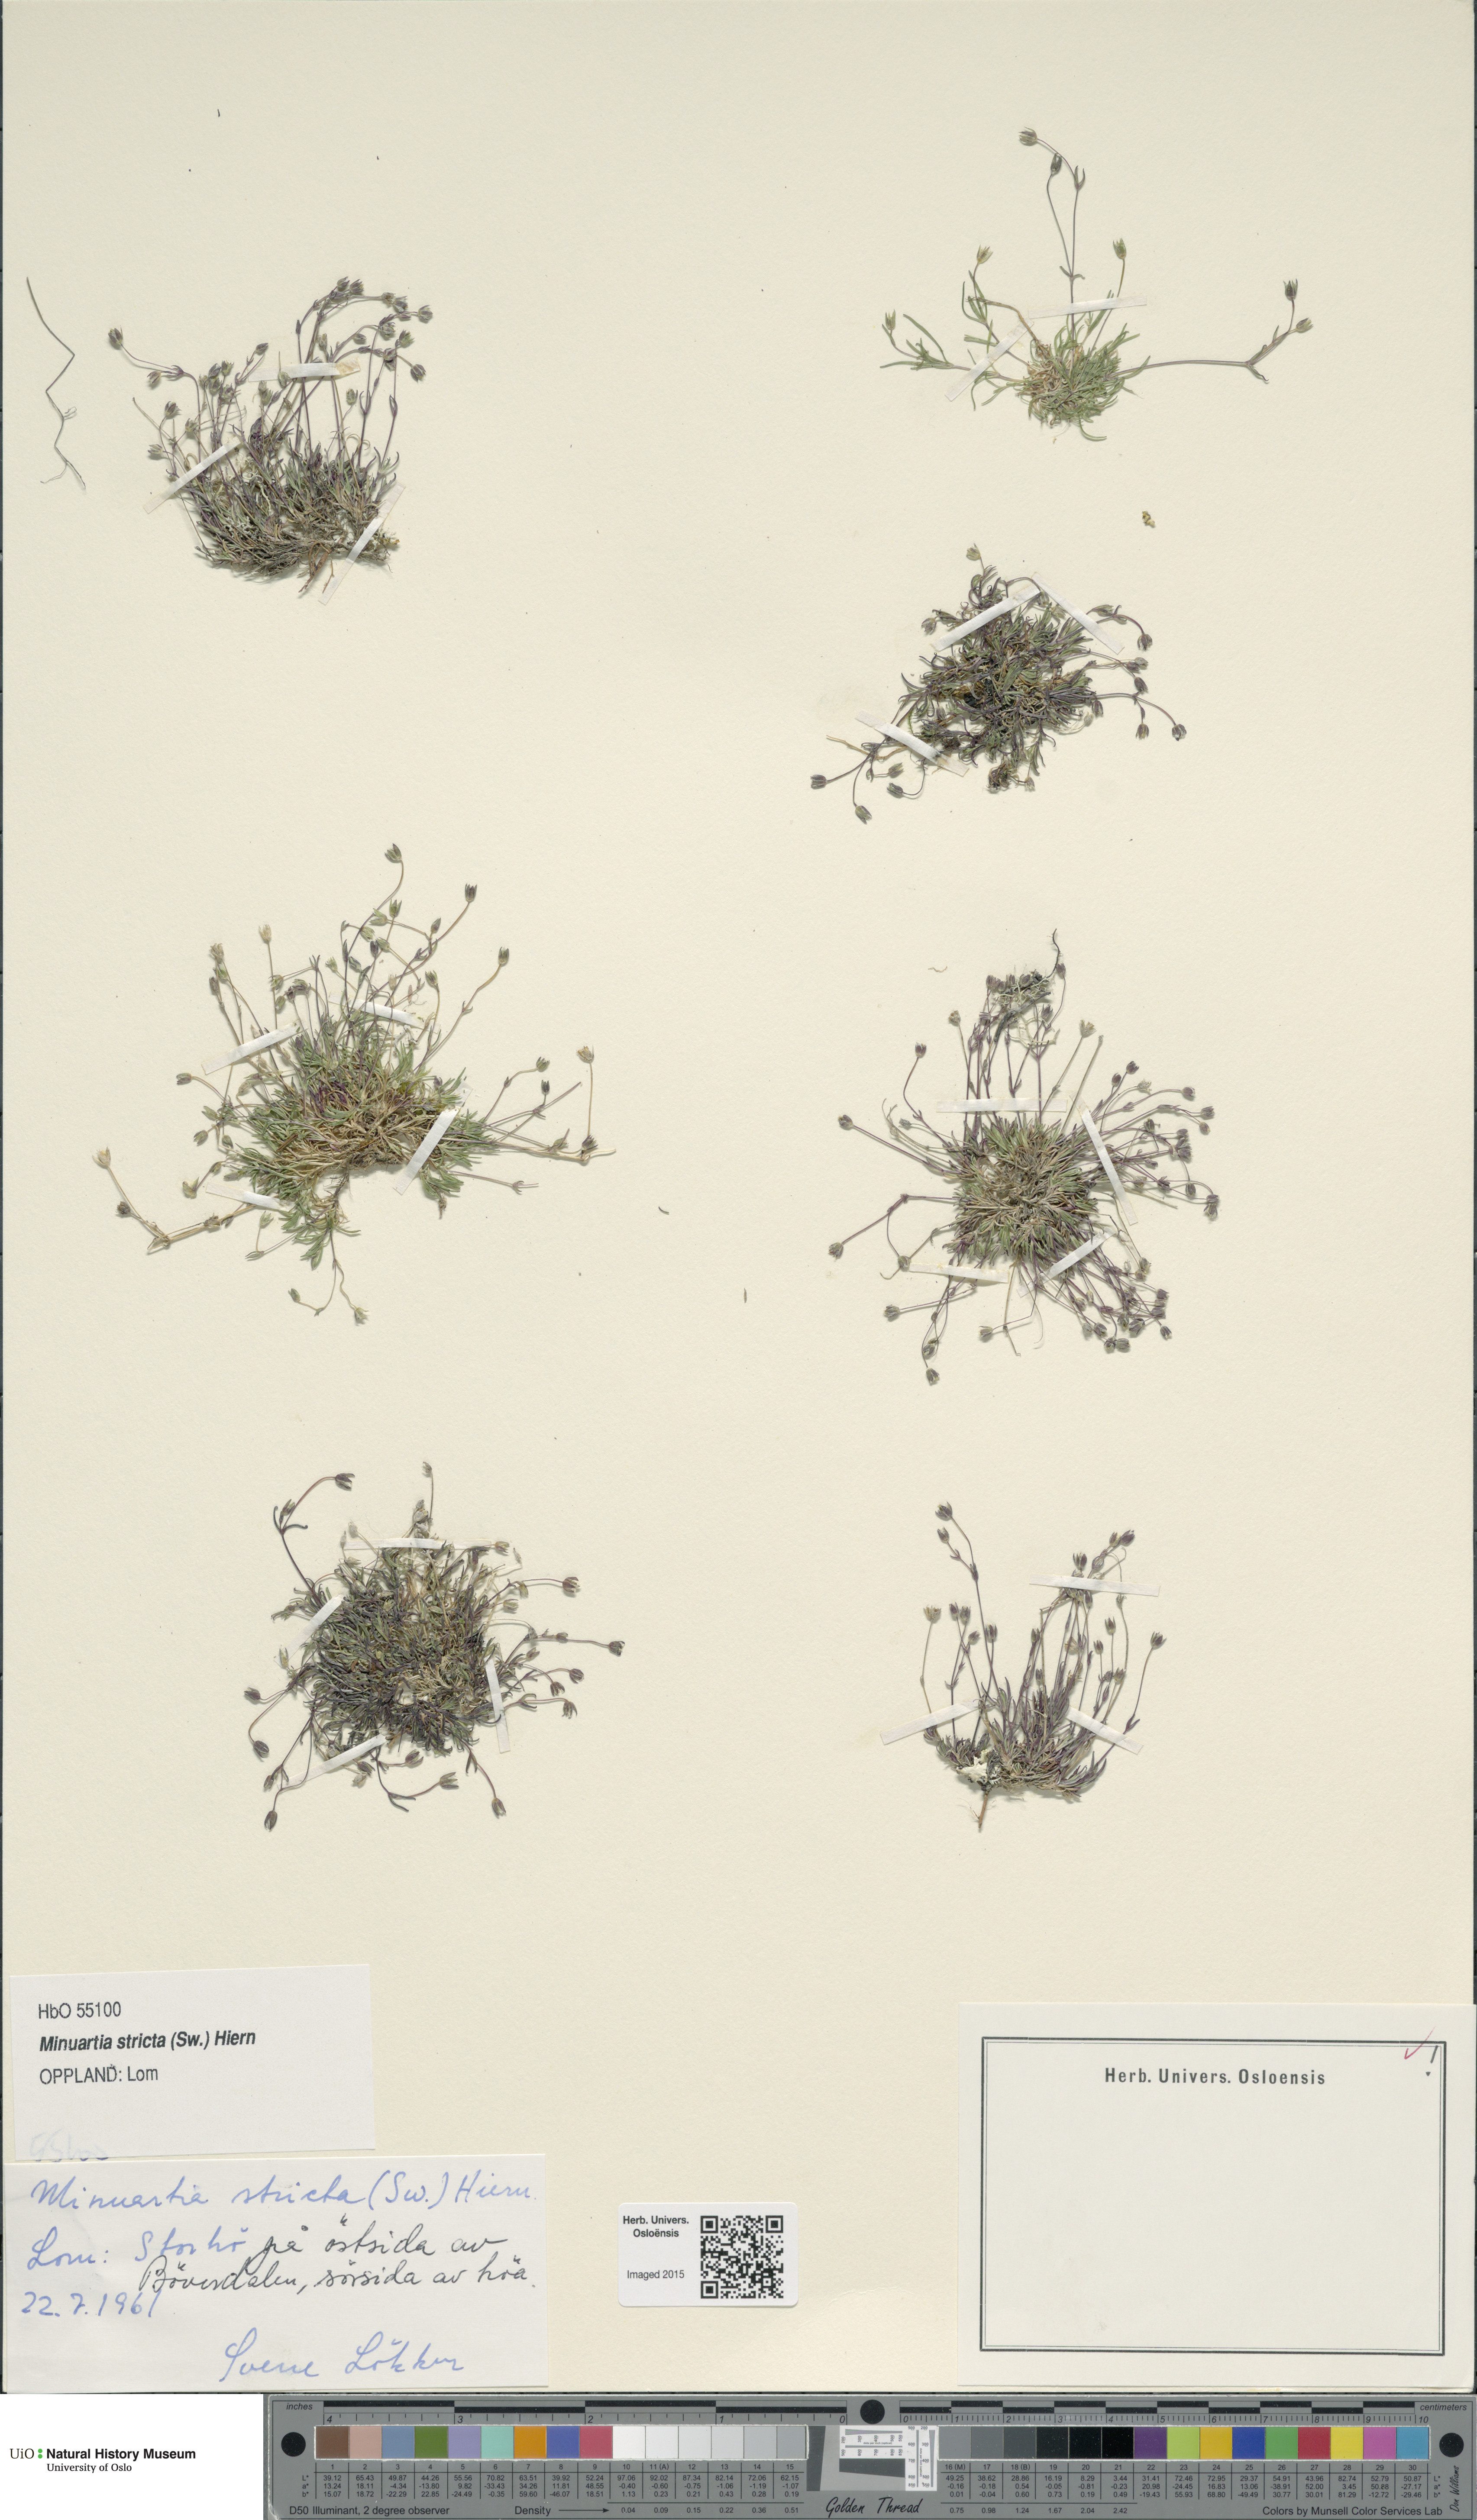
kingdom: Plantae
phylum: Tracheophyta
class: Magnoliopsida
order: Caryophyllales
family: Caryophyllaceae
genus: Sabulina
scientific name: Sabulina stricta
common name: Bog sandwort
